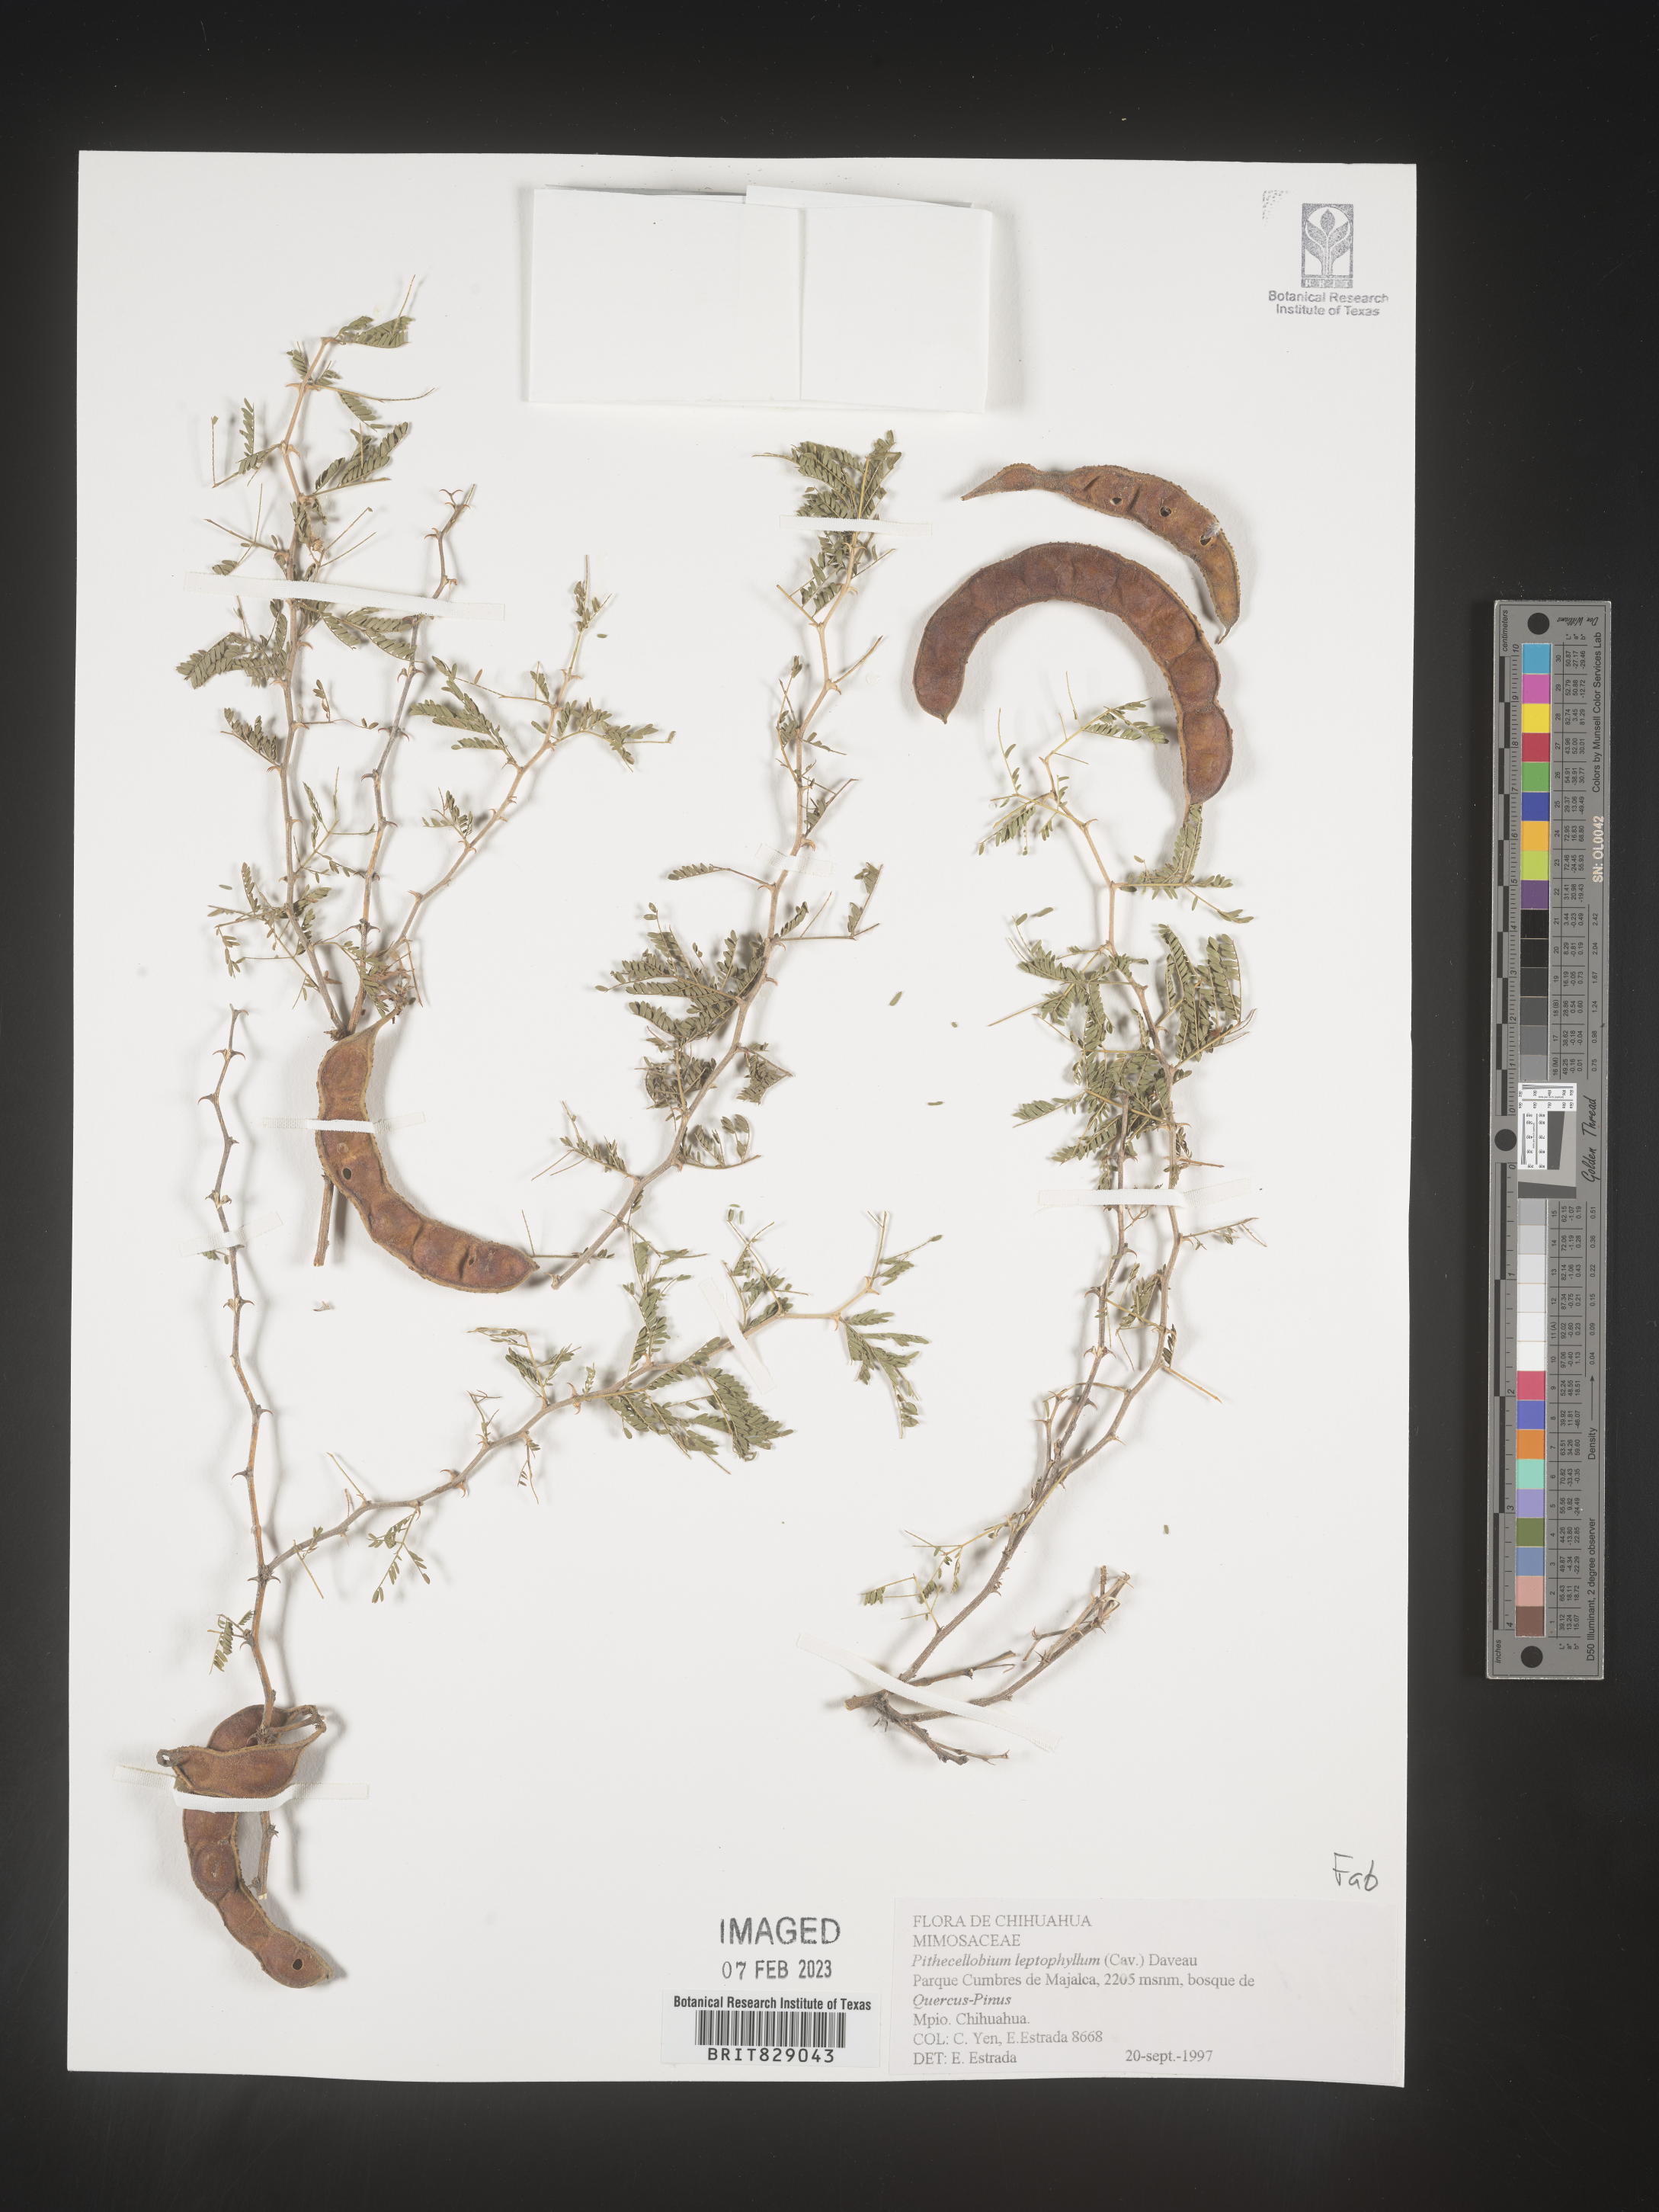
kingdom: Plantae
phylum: Tracheophyta
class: Magnoliopsida
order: Fabales
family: Fabaceae
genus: Pithecellobium
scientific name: Pithecellobium
